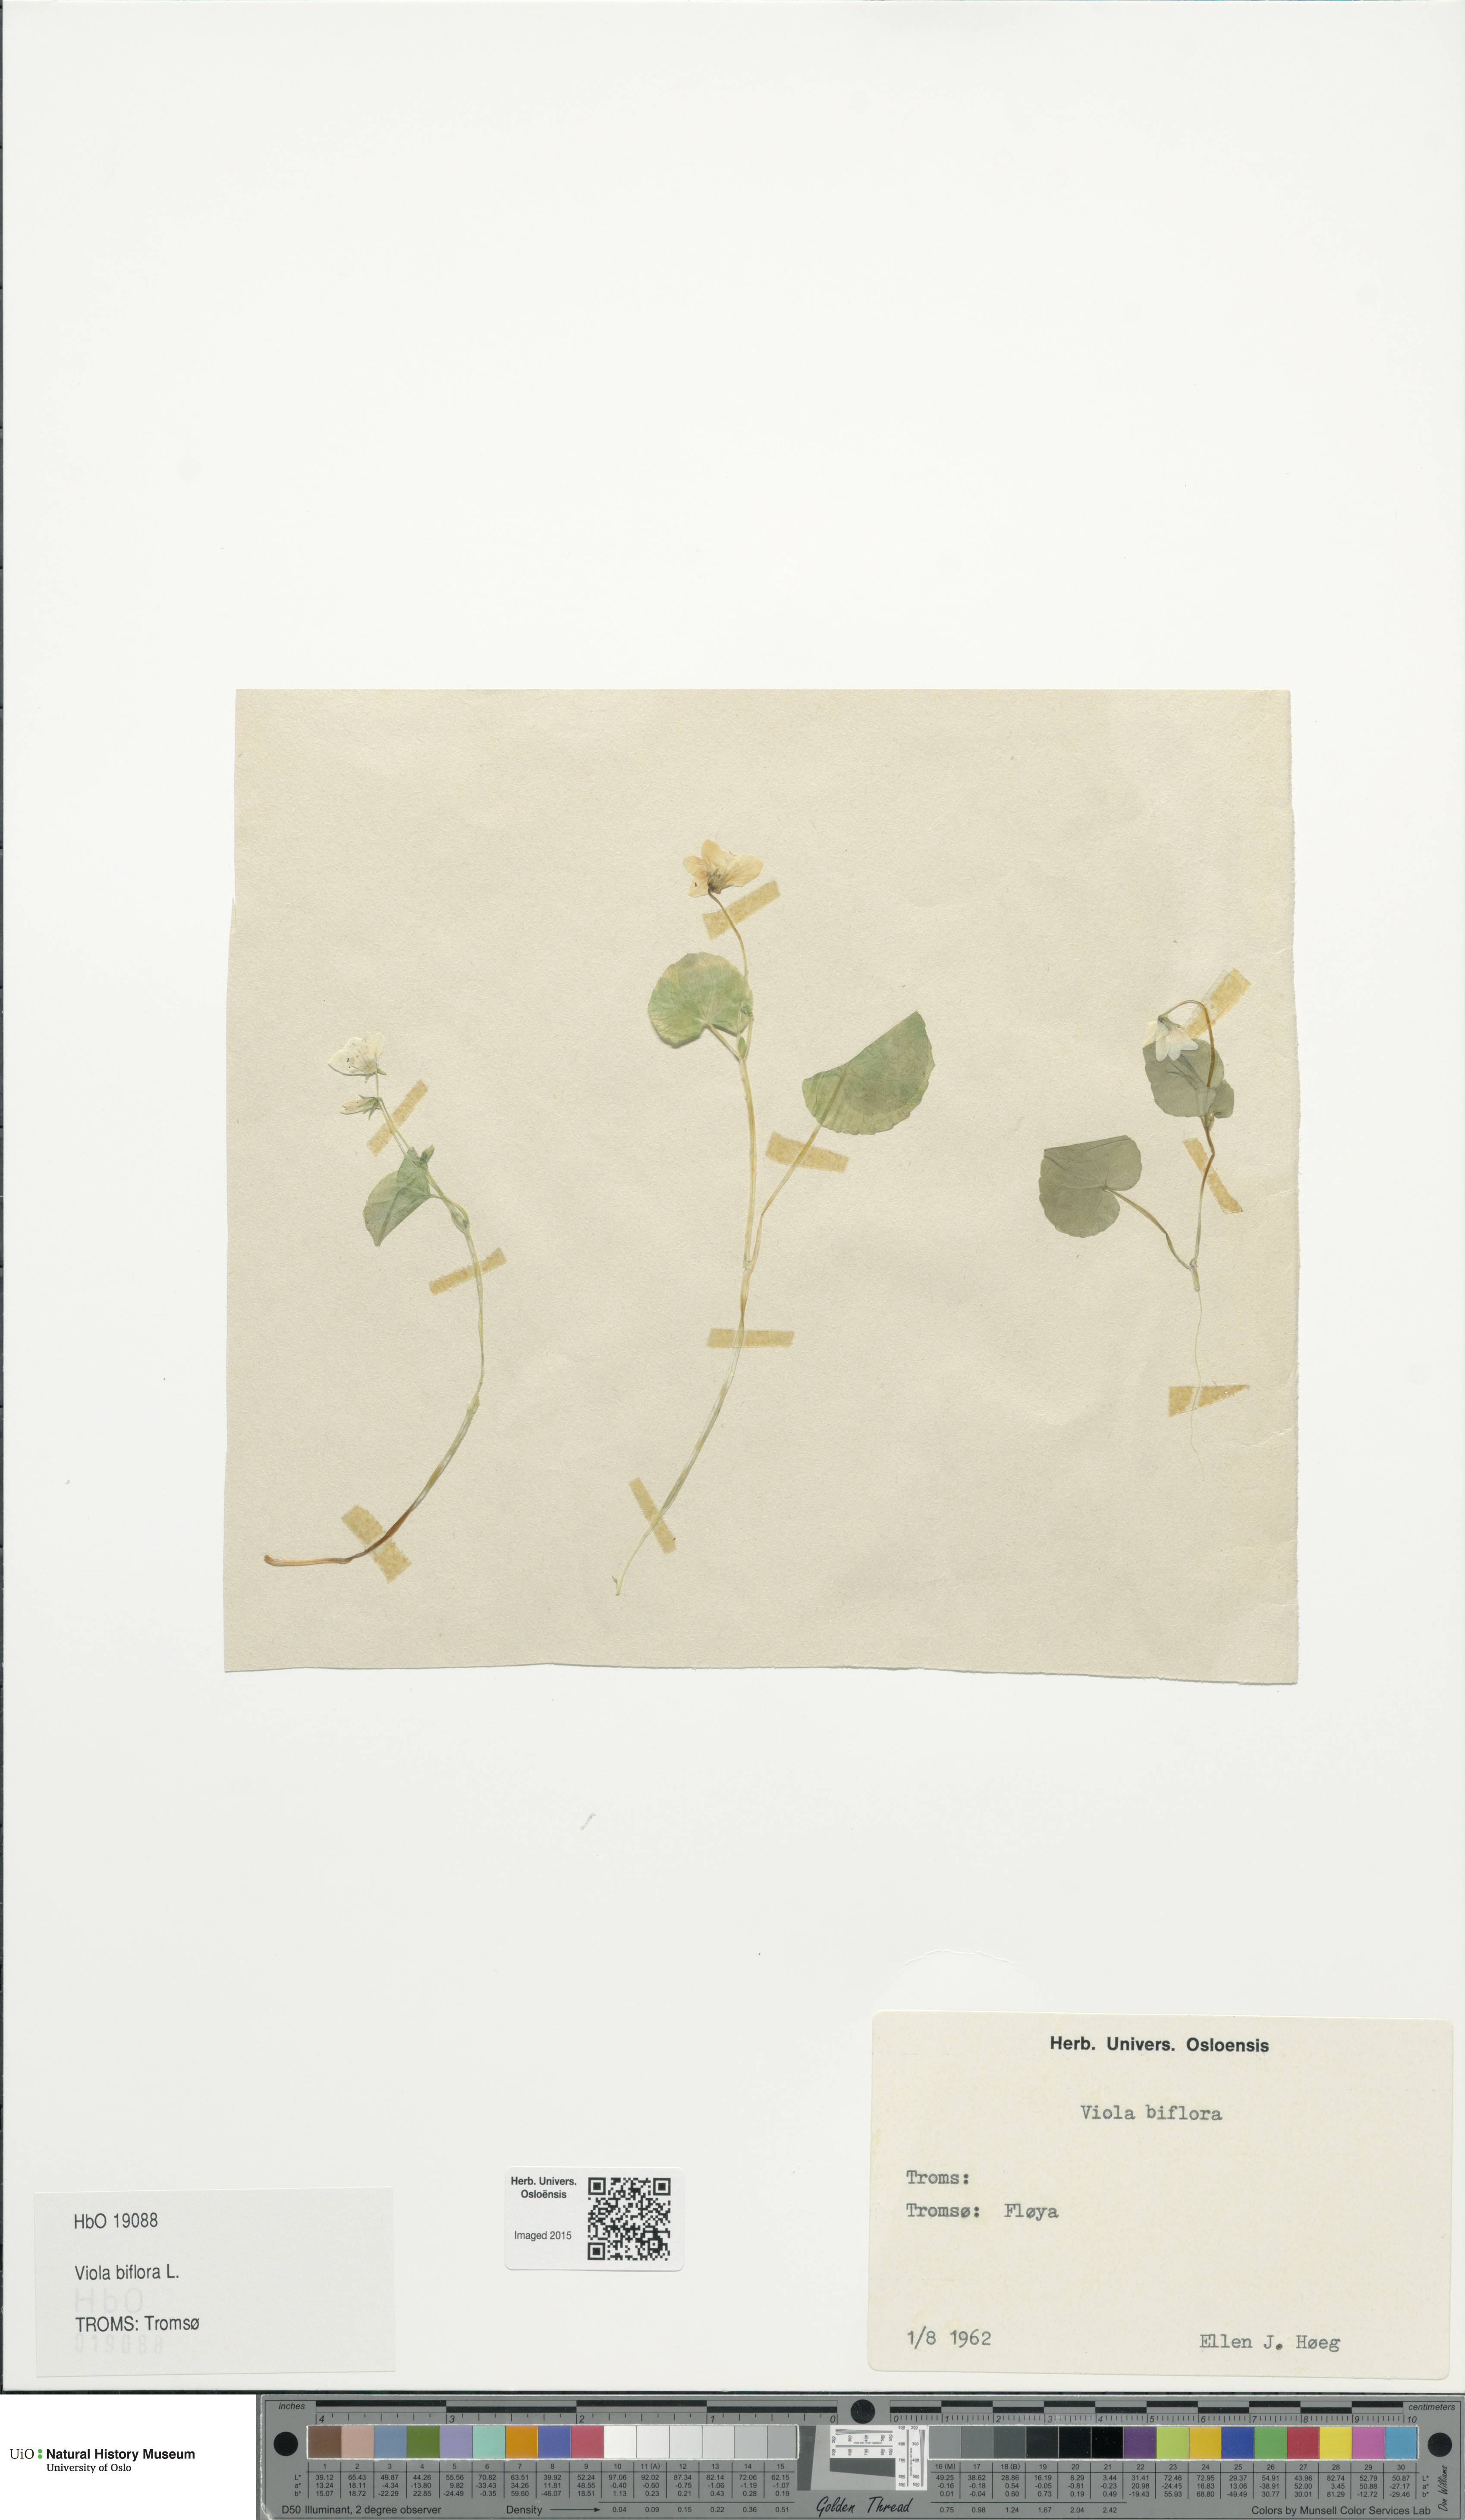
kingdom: Plantae
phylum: Tracheophyta
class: Magnoliopsida
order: Malpighiales
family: Violaceae
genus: Viola
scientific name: Viola biflora
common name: Alpine yellow violet
